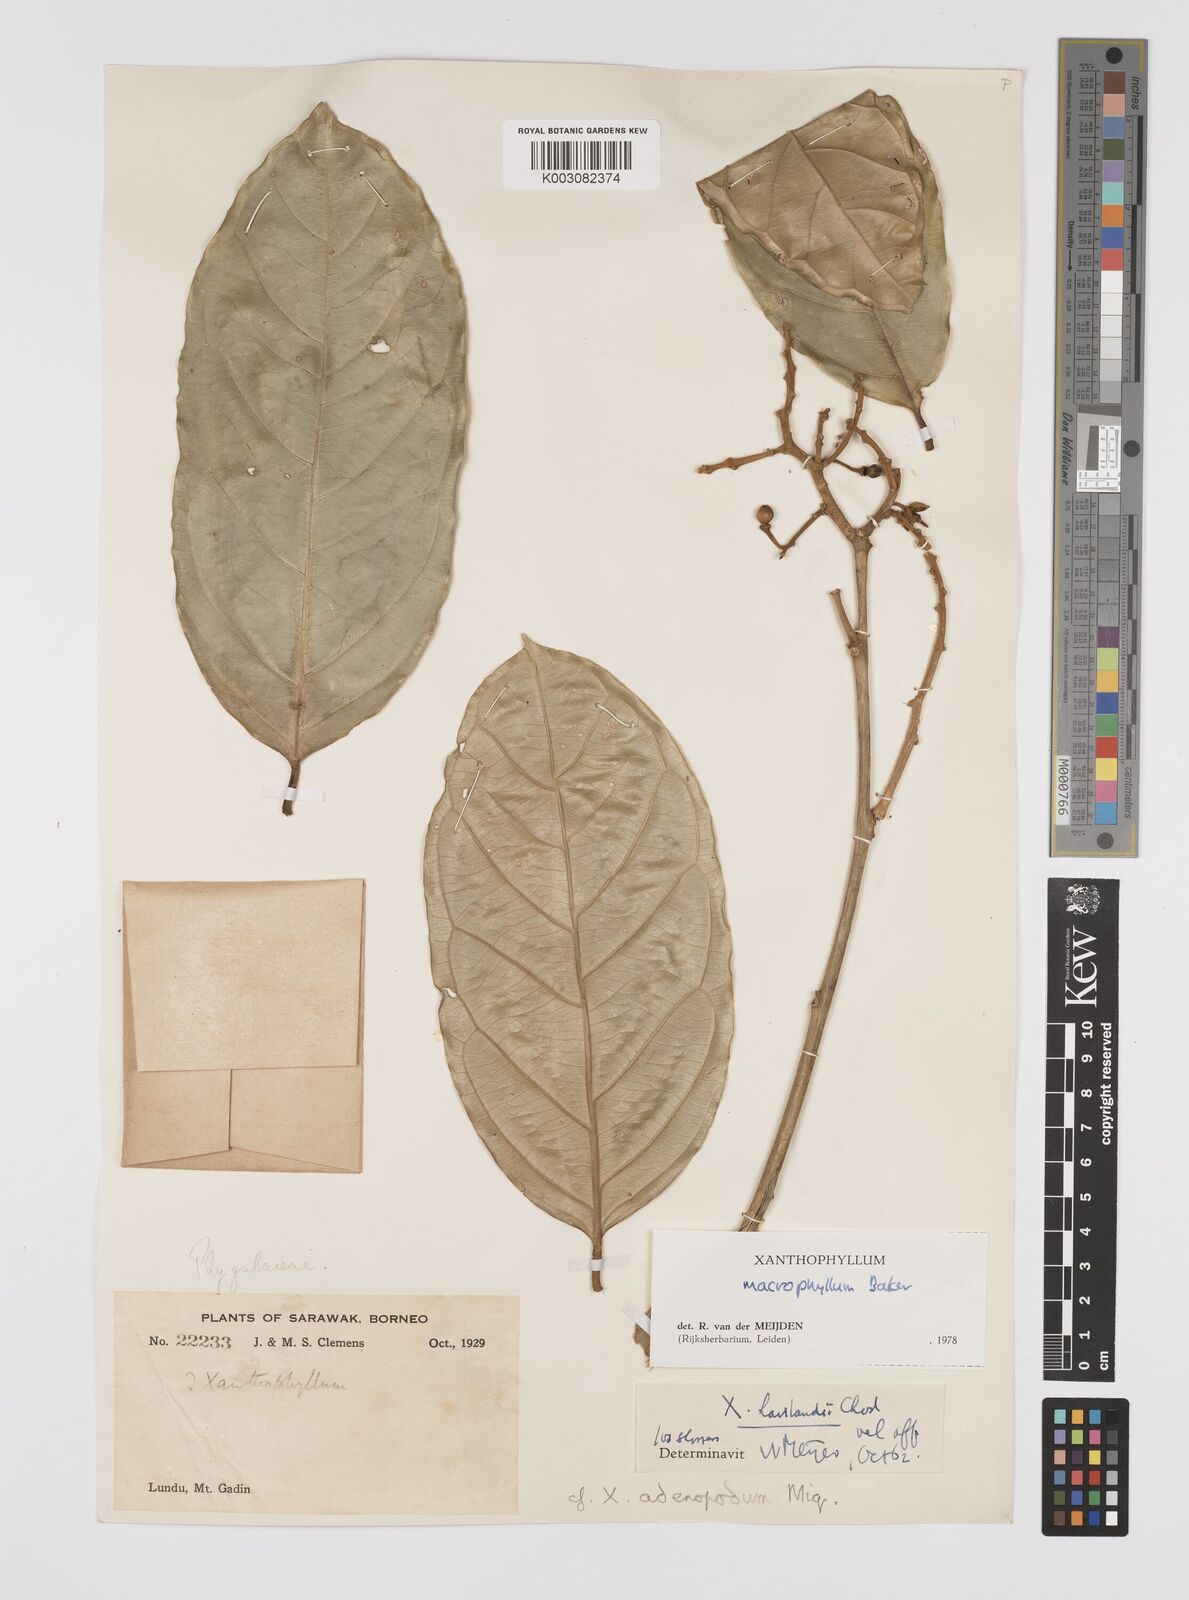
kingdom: Plantae
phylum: Tracheophyta
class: Magnoliopsida
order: Fabales
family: Polygalaceae
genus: Xanthophyllum
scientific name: Xanthophyllum macrophyllum
